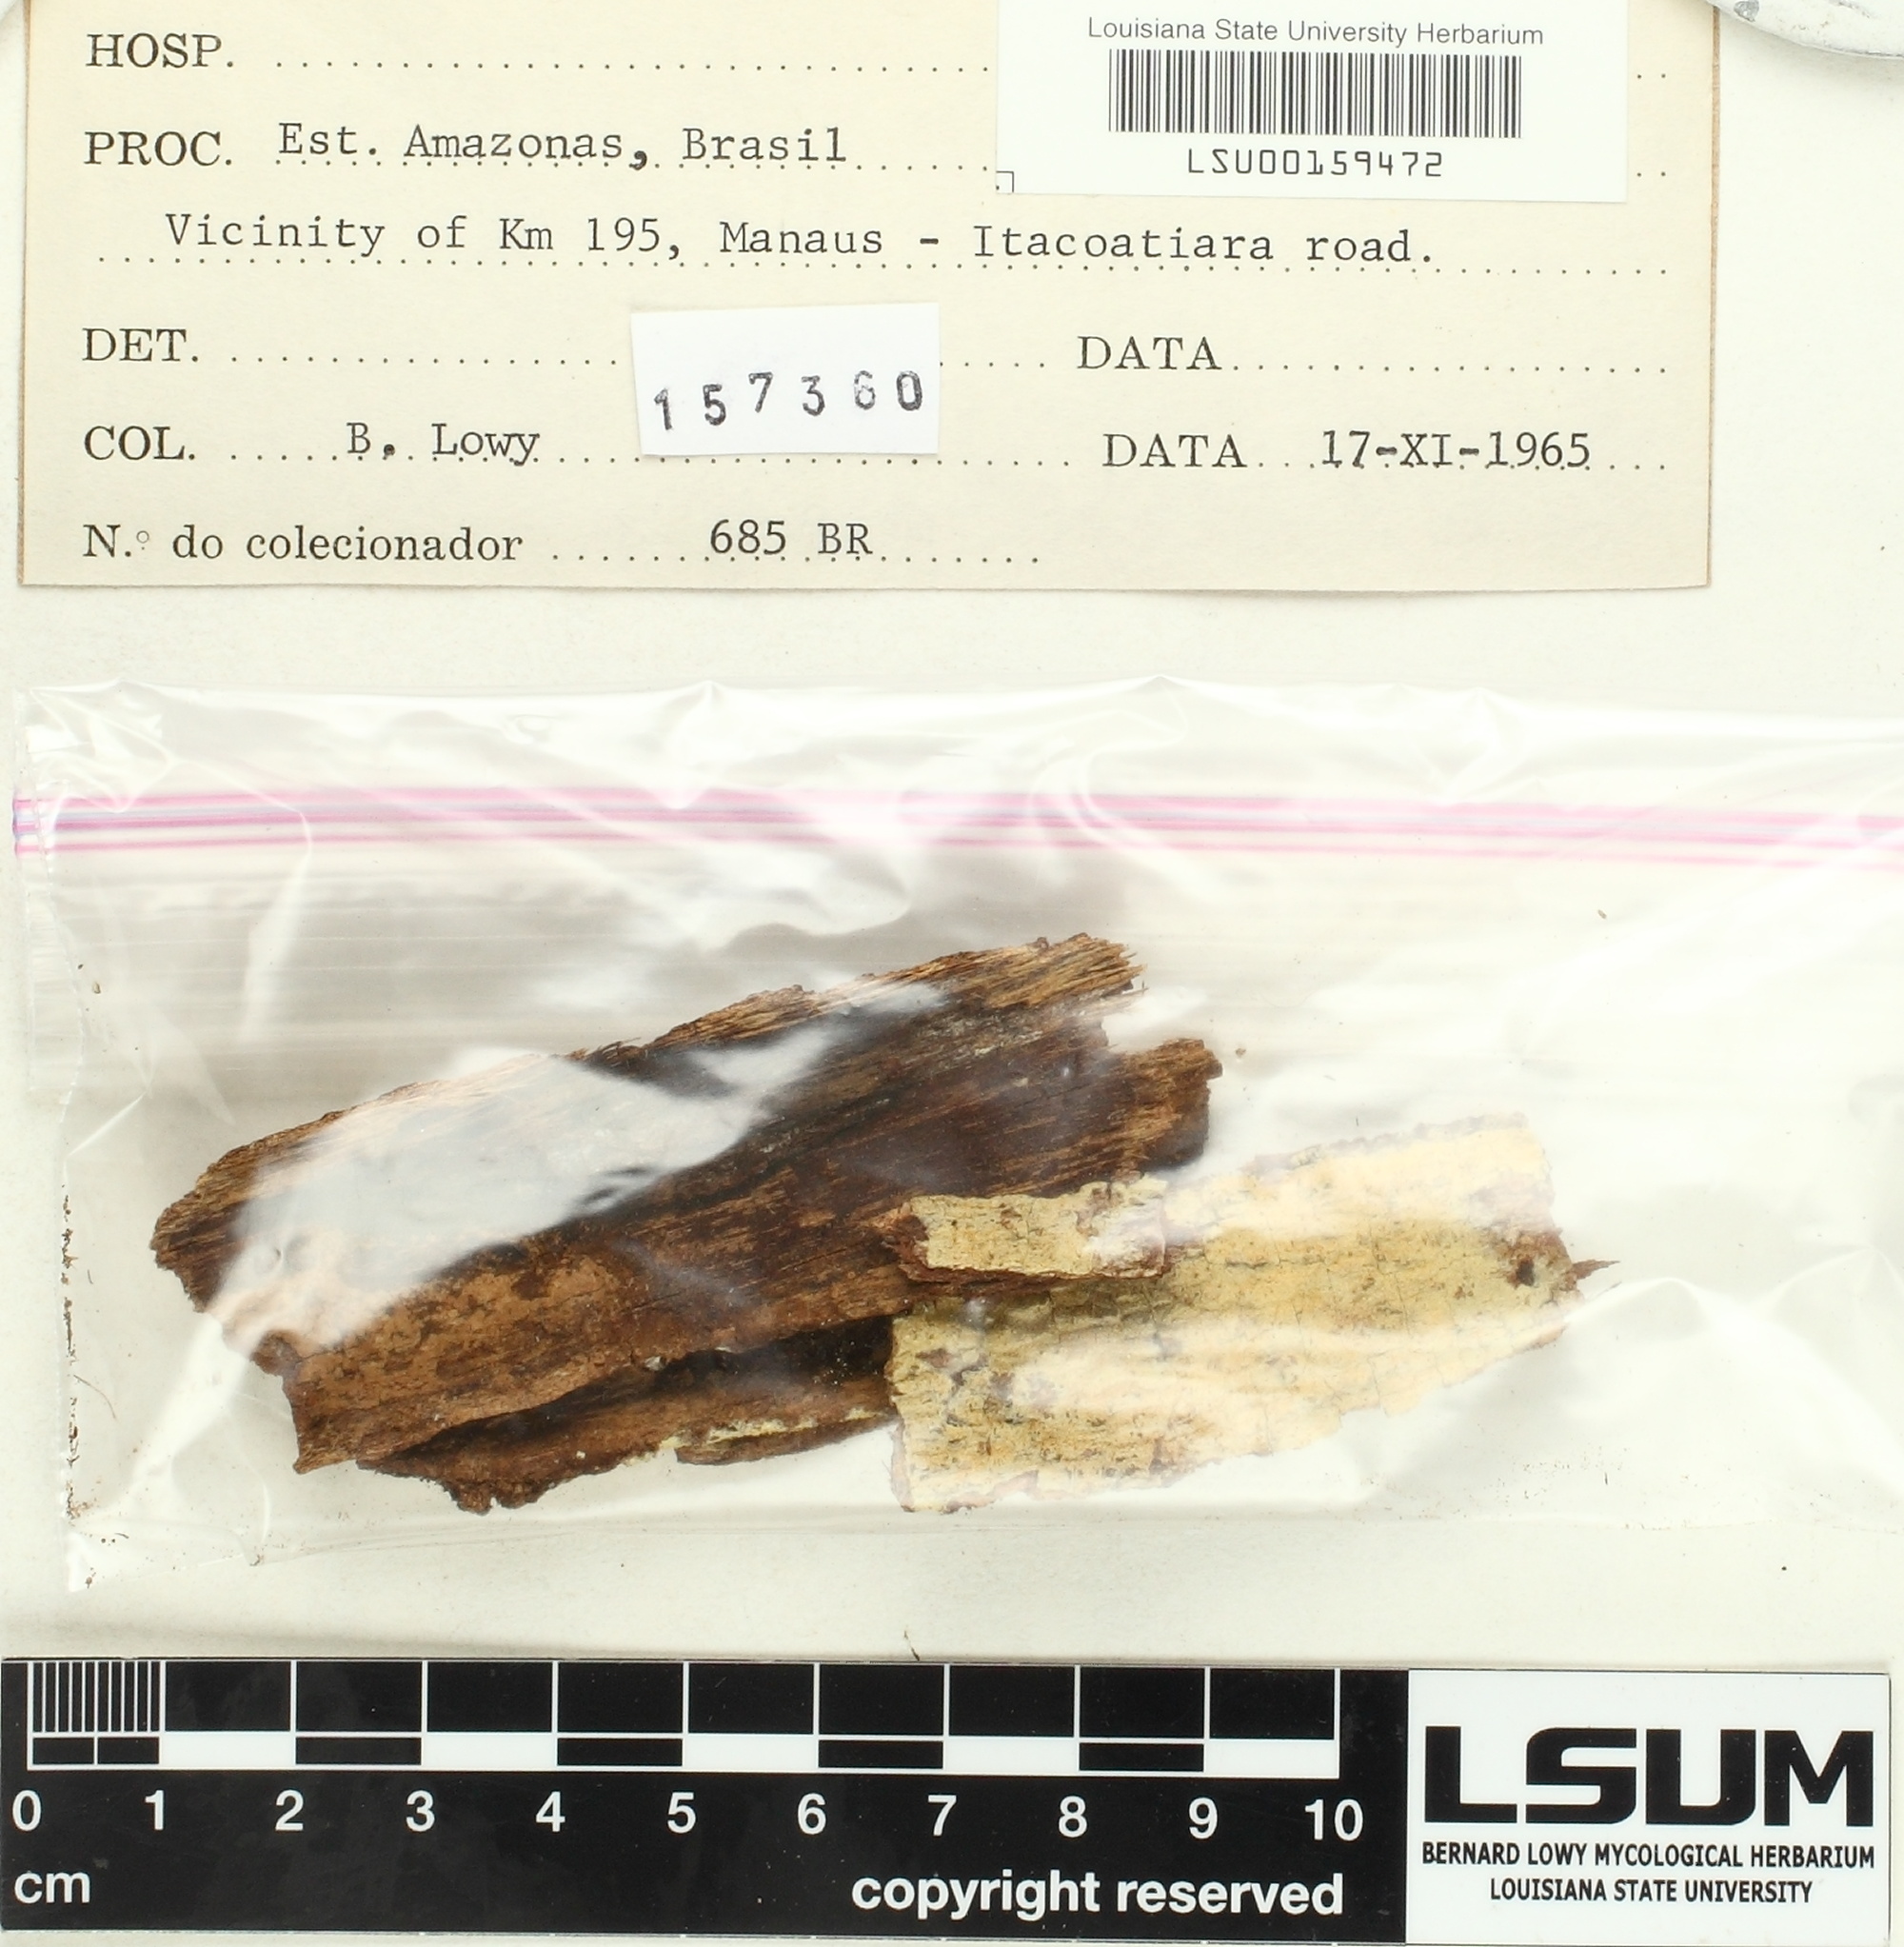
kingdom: Fungi
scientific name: Fungi
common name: Fungi
